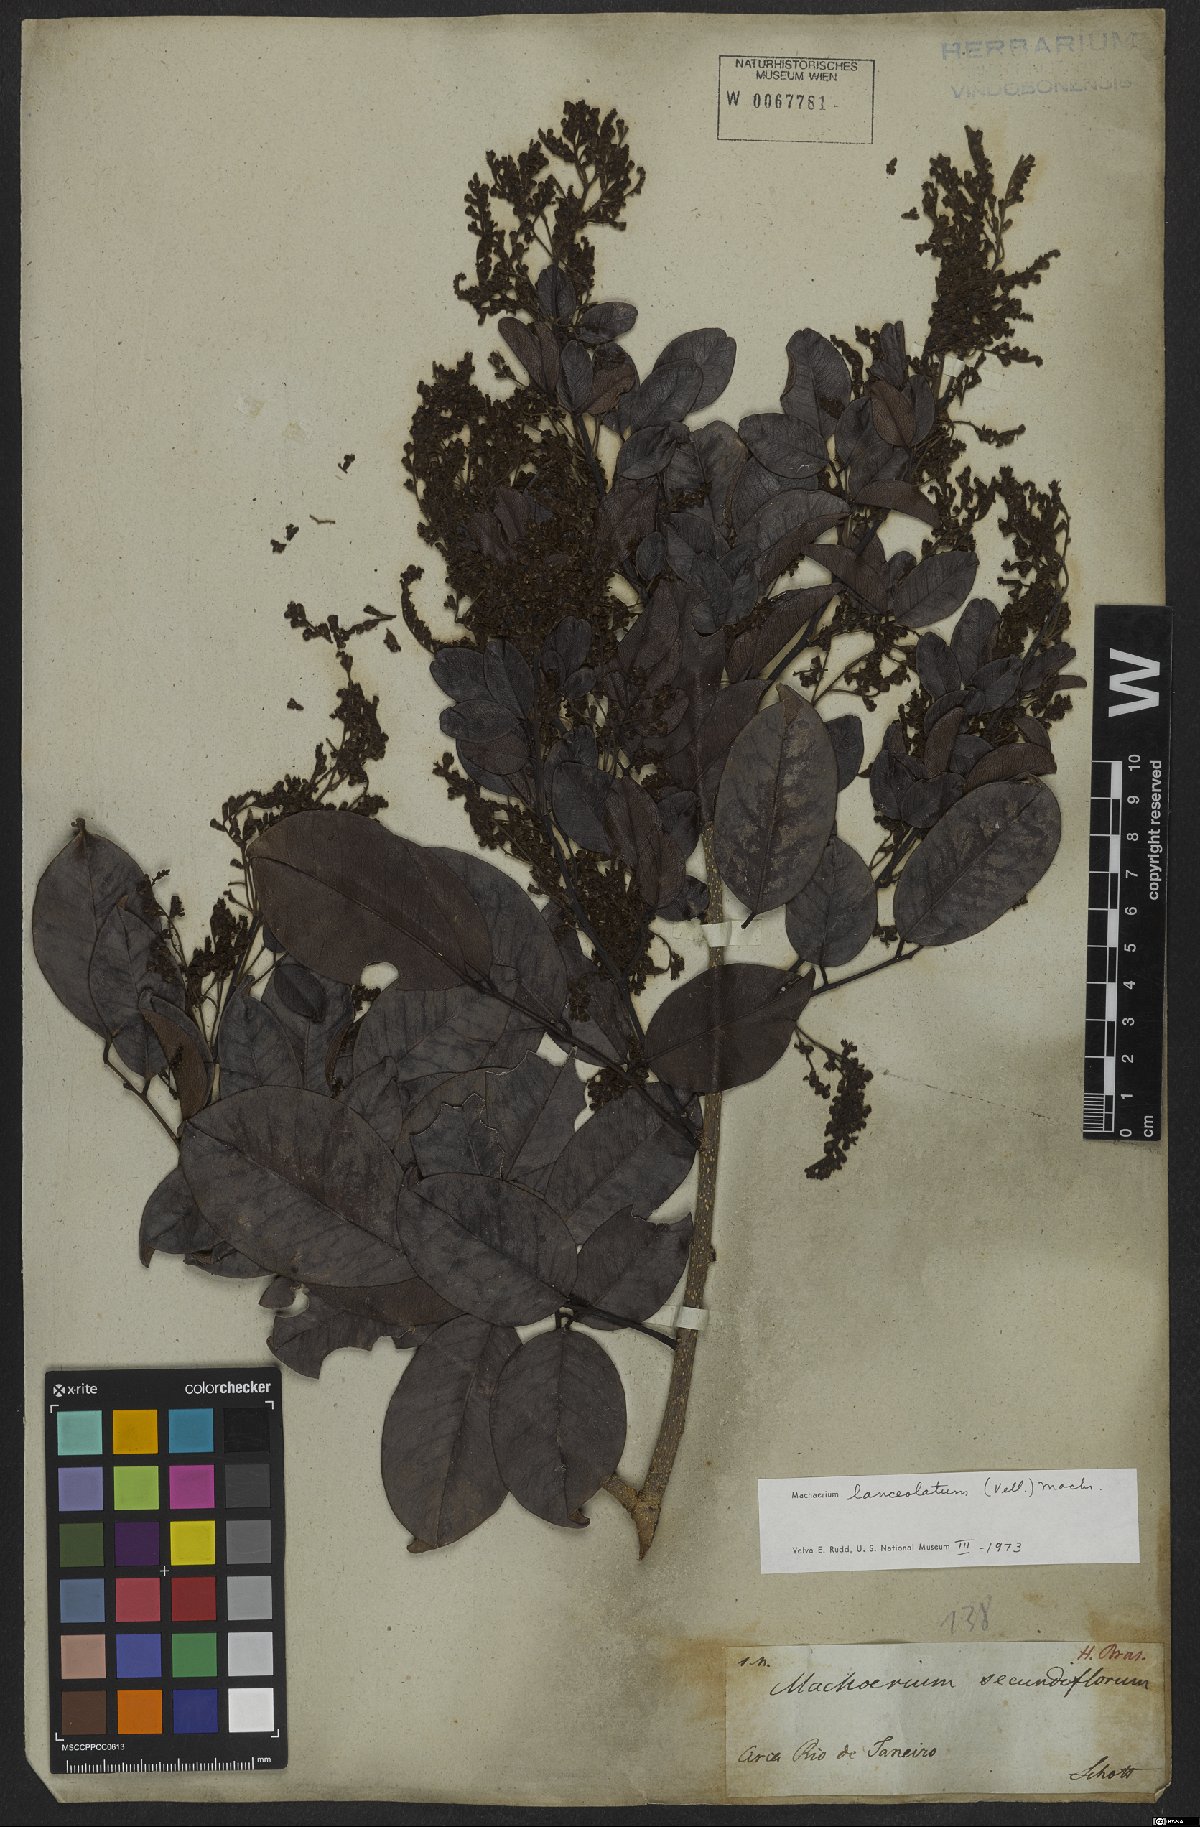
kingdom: Plantae
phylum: Tracheophyta
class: Magnoliopsida
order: Fabales
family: Fabaceae
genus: Machaerium
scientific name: Machaerium lanceolatum
